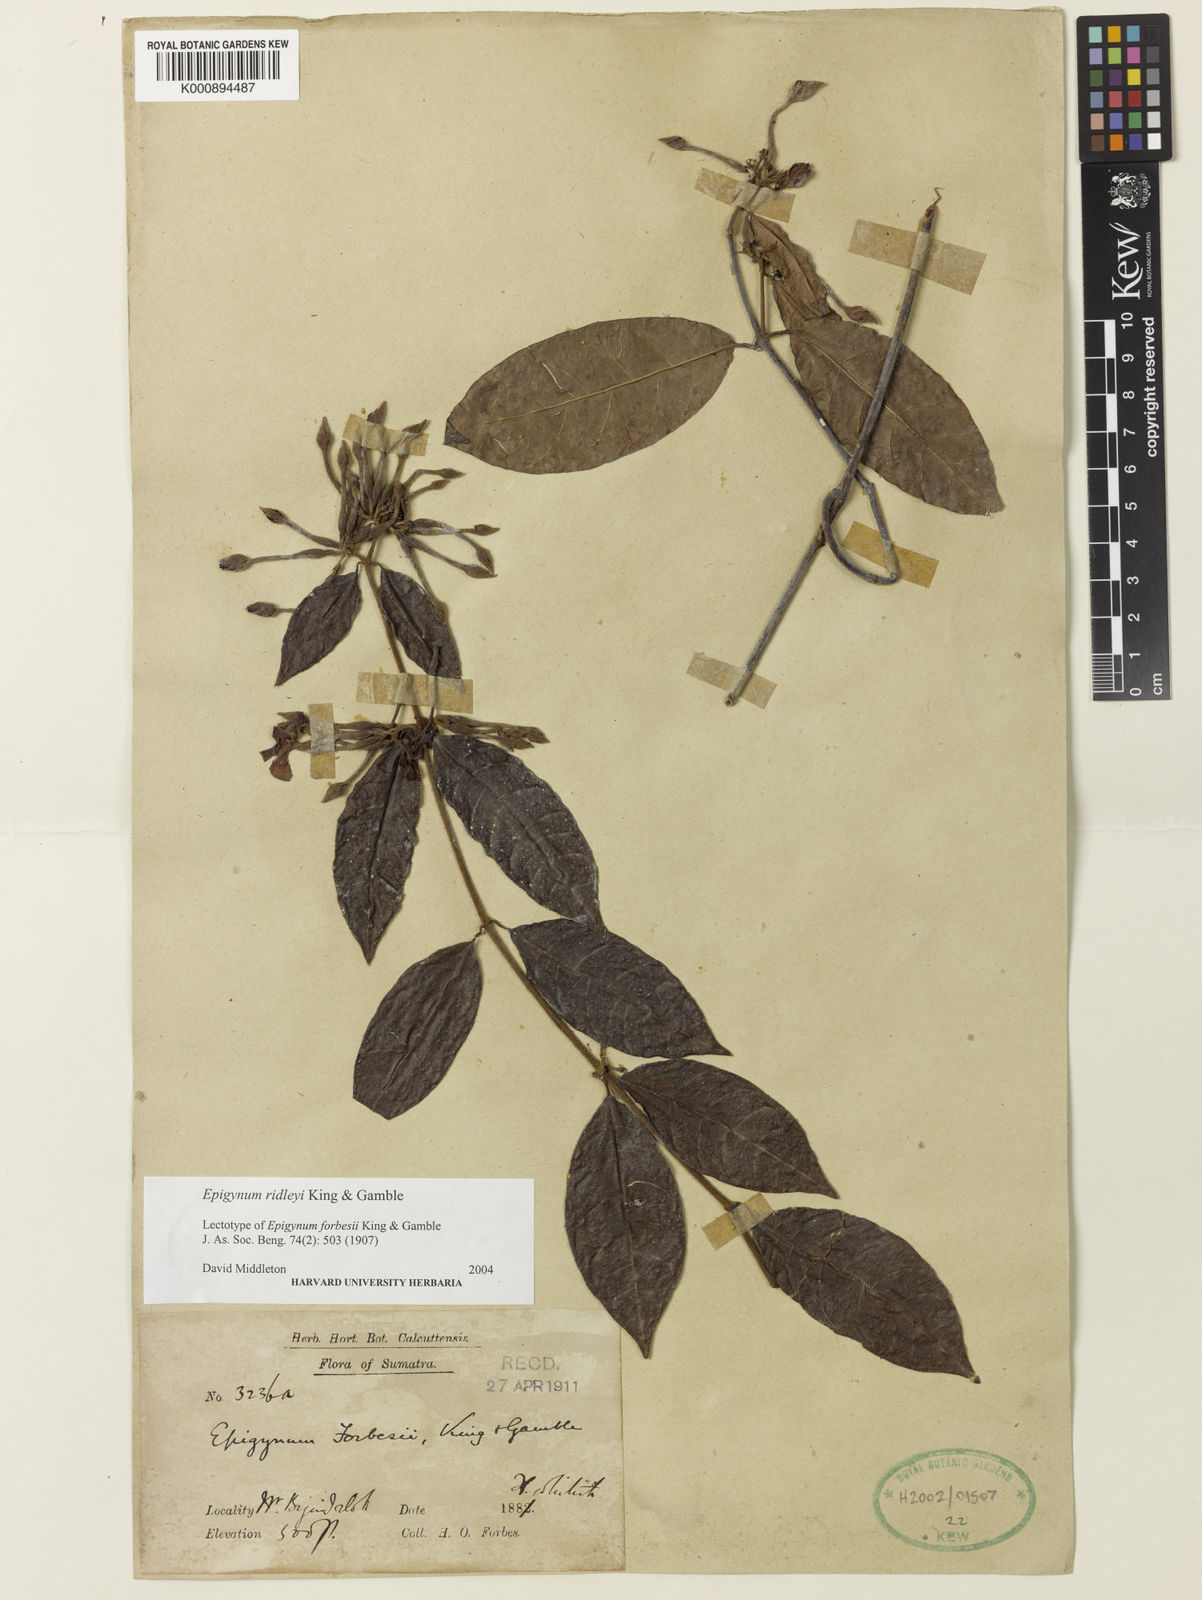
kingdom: Plantae
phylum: Tracheophyta
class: Magnoliopsida
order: Gentianales
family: Apocynaceae
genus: Epigynum
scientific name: Epigynum ridleyi
